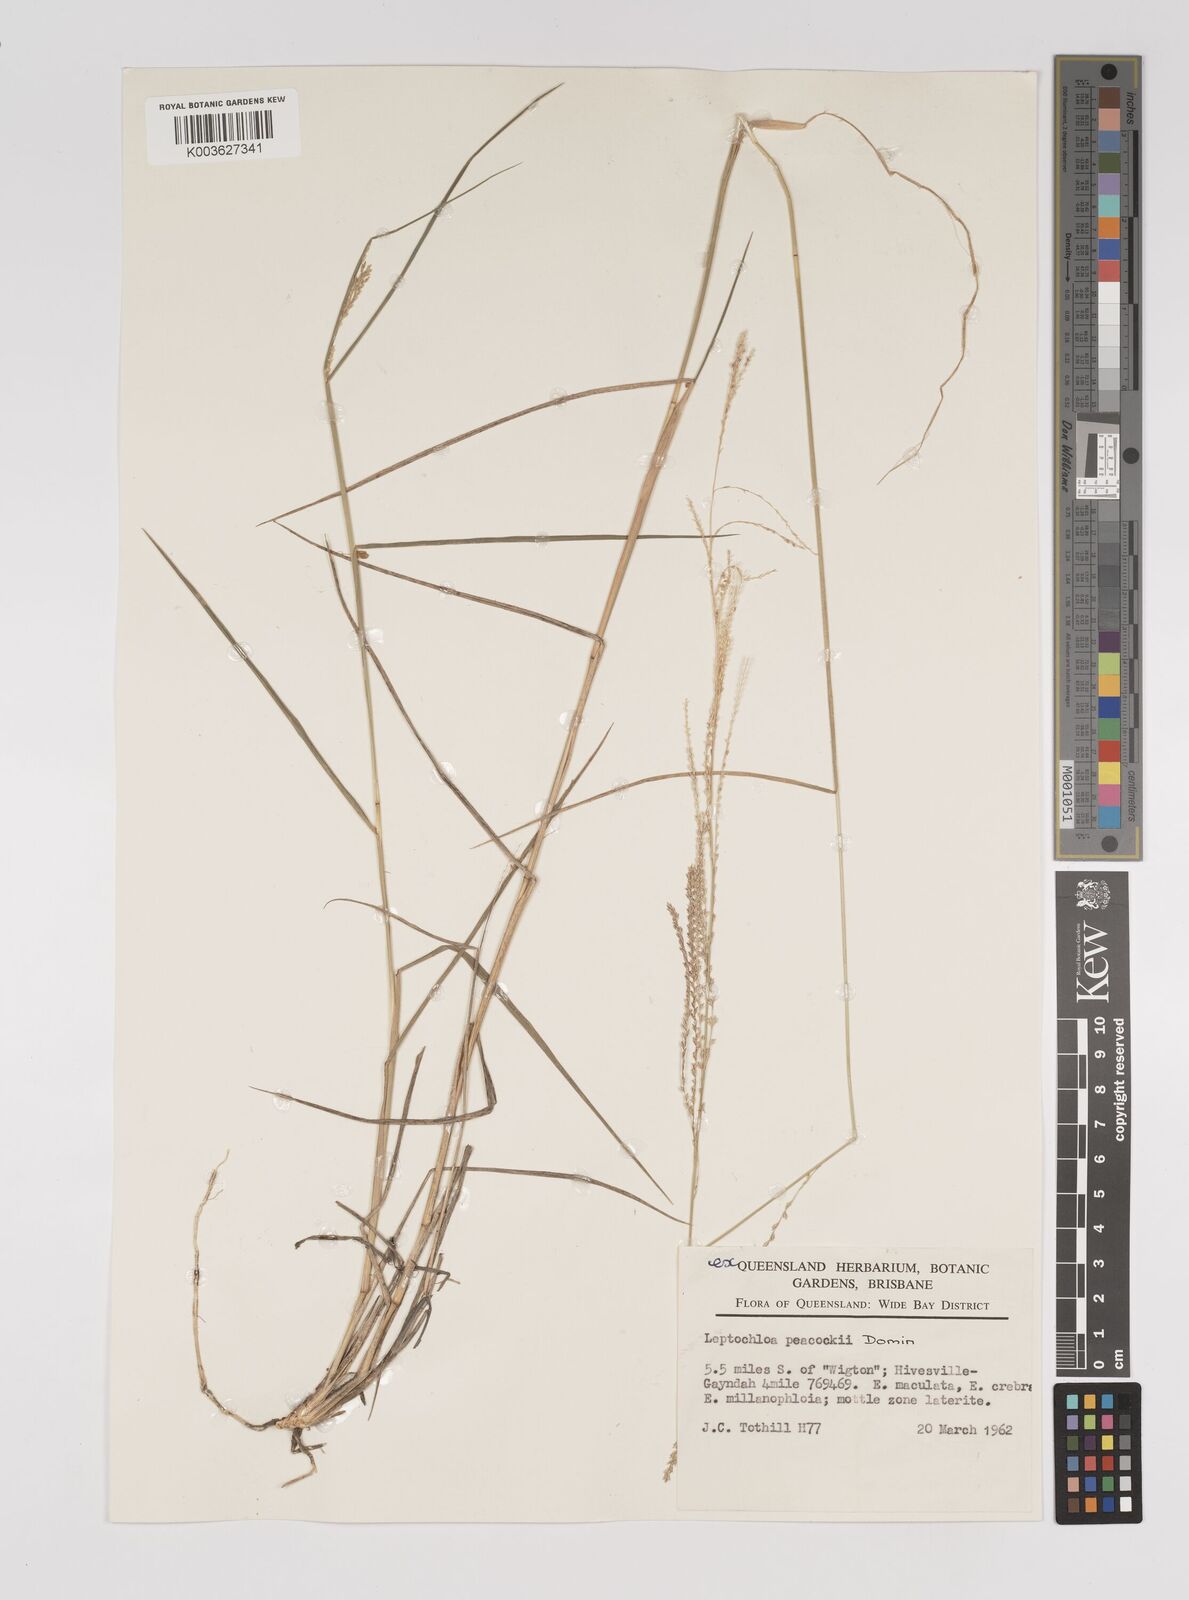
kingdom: Plantae
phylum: Tracheophyta
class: Liliopsida
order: Poales
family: Poaceae
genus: Leptochloa
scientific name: Leptochloa decipiens
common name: Australian sprangletop
